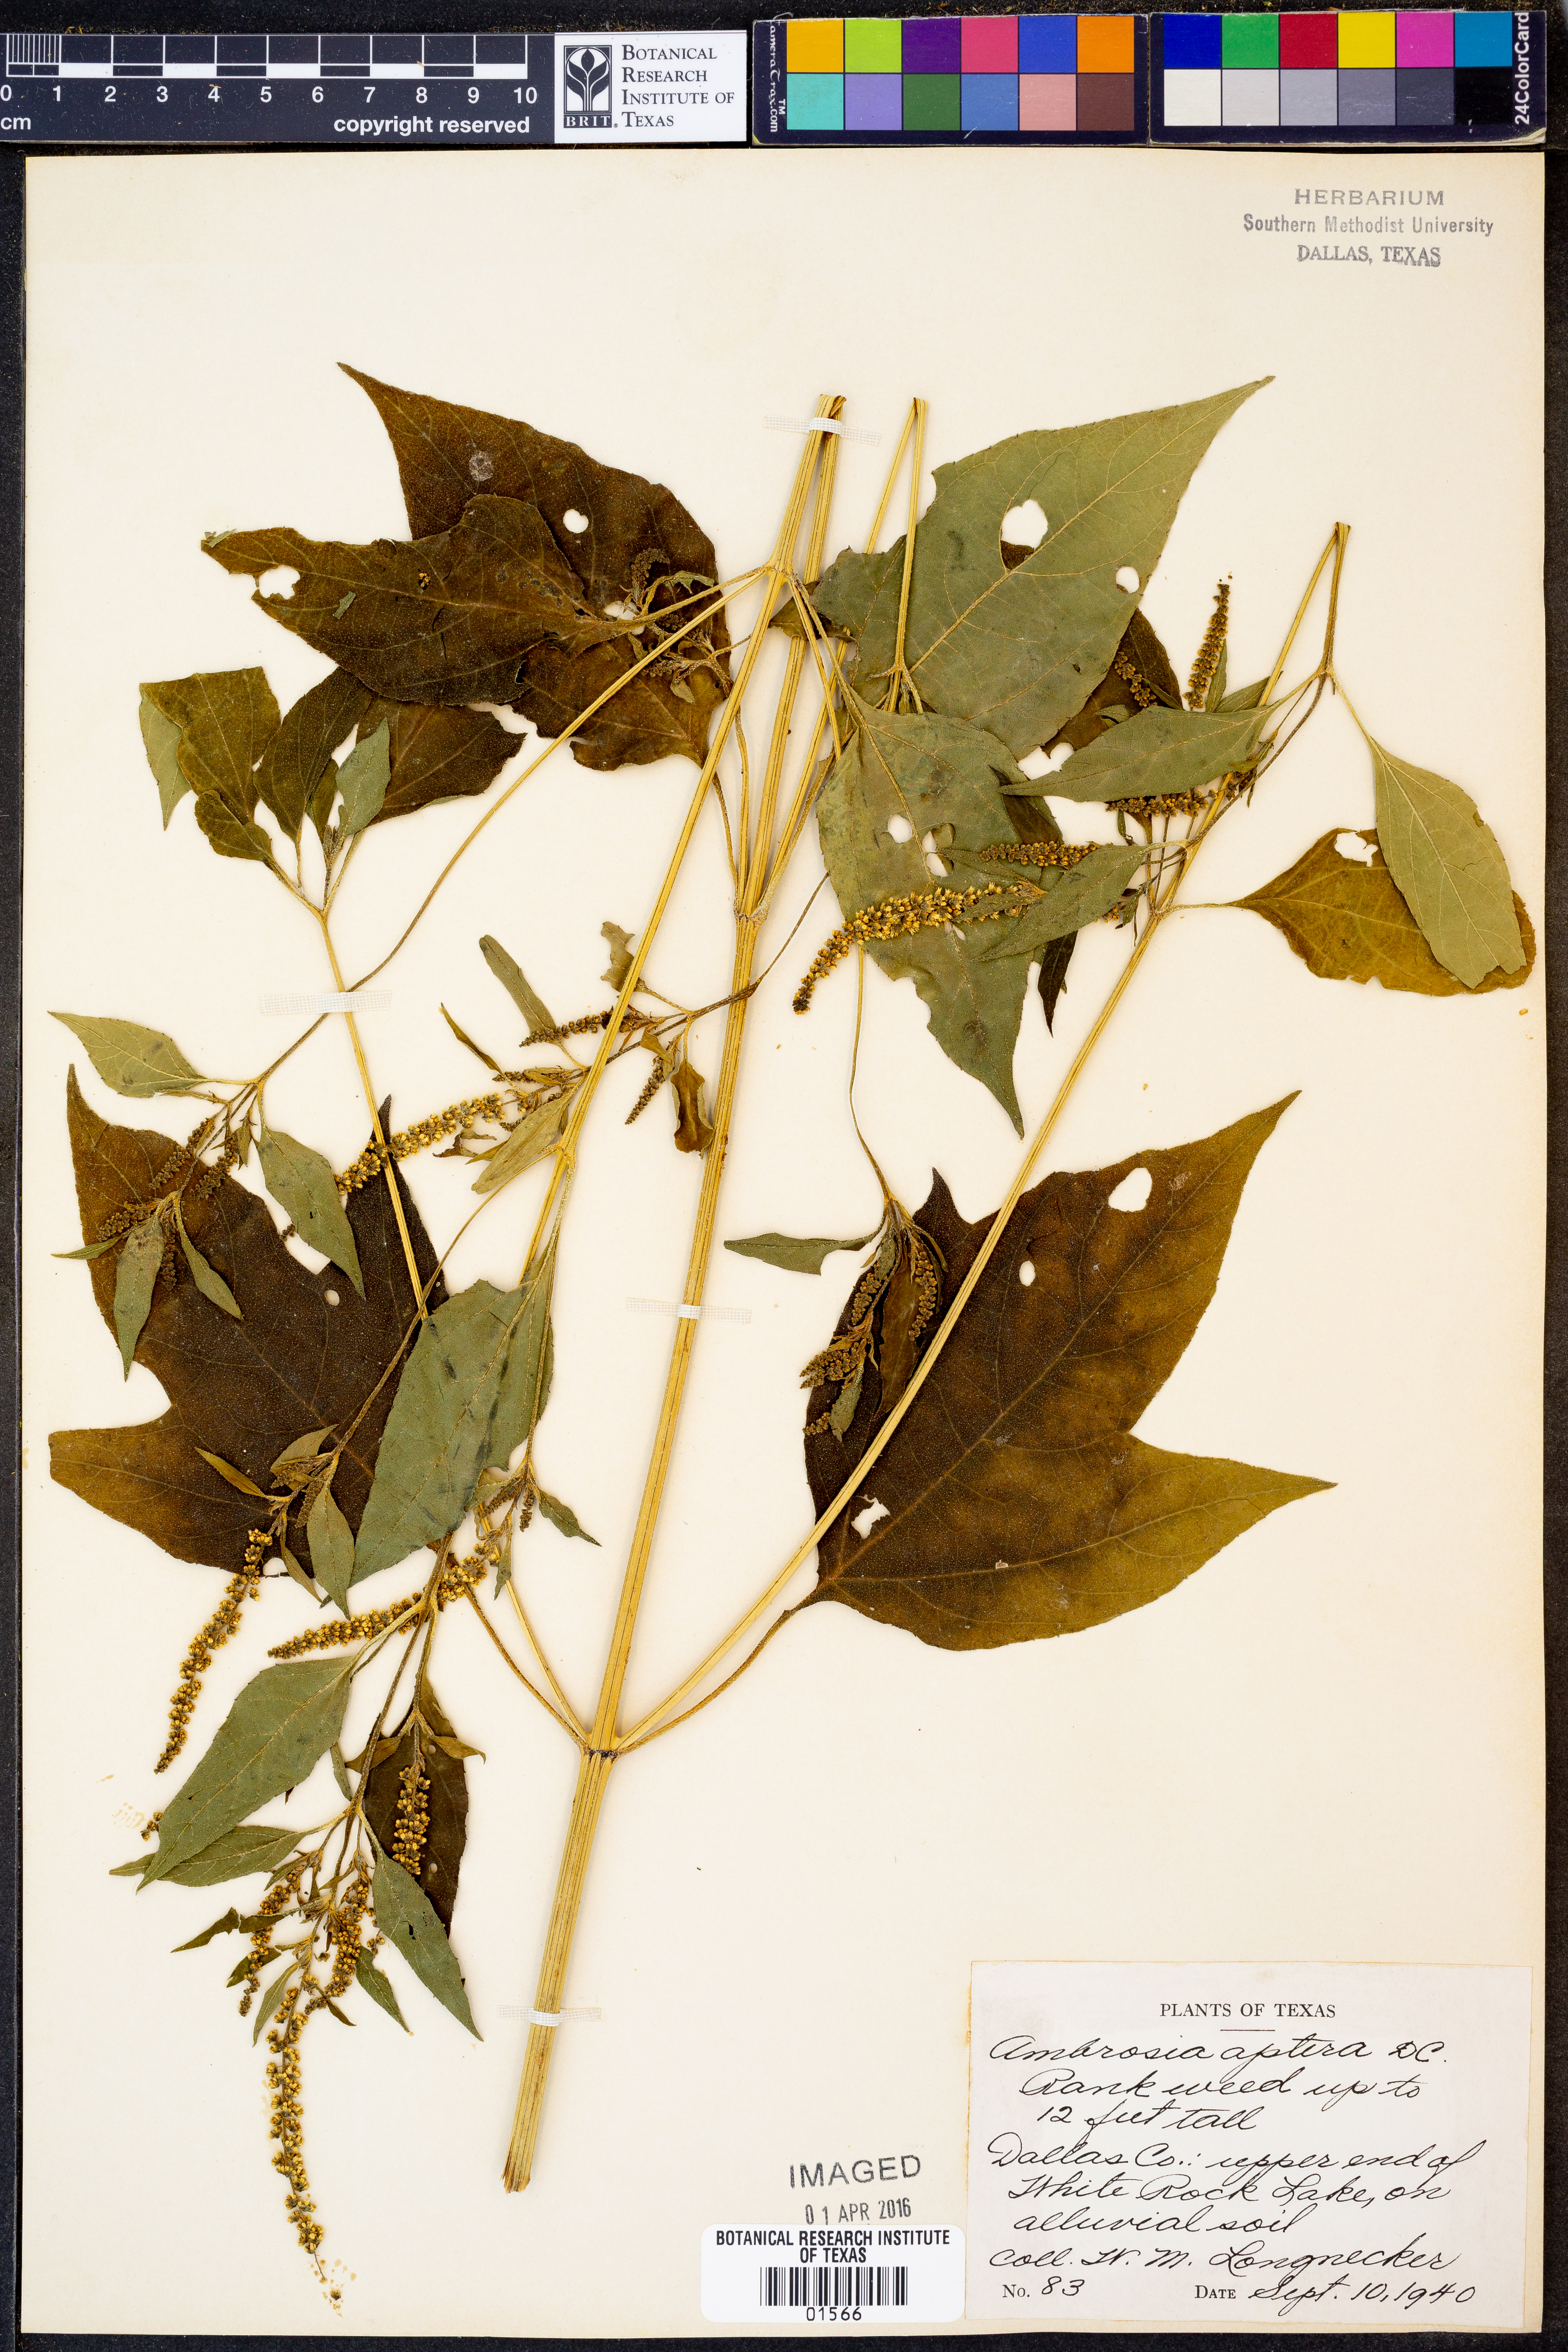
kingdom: Plantae
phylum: Tracheophyta
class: Magnoliopsida
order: Asterales
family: Asteraceae
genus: Ambrosia
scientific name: Ambrosia trifida
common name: Giant ragweed
